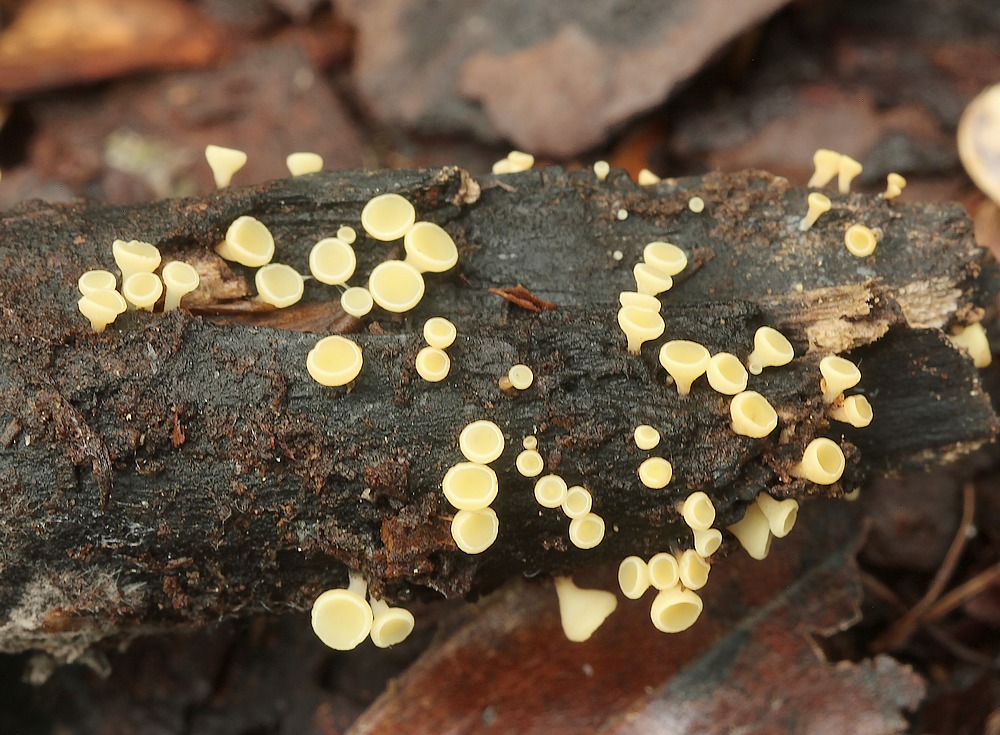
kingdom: Fungi
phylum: Ascomycota
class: Leotiomycetes
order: Helotiales
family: Helotiaceae
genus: Hymenoscyphus
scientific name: Hymenoscyphus
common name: stilkskive
